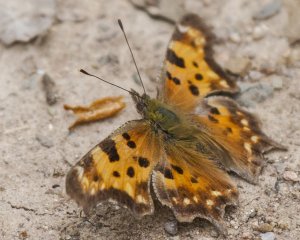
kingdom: Animalia
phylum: Arthropoda
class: Insecta
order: Lepidoptera
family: Nymphalidae
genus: Polygonia
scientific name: Polygonia faunus
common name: Green Comma
